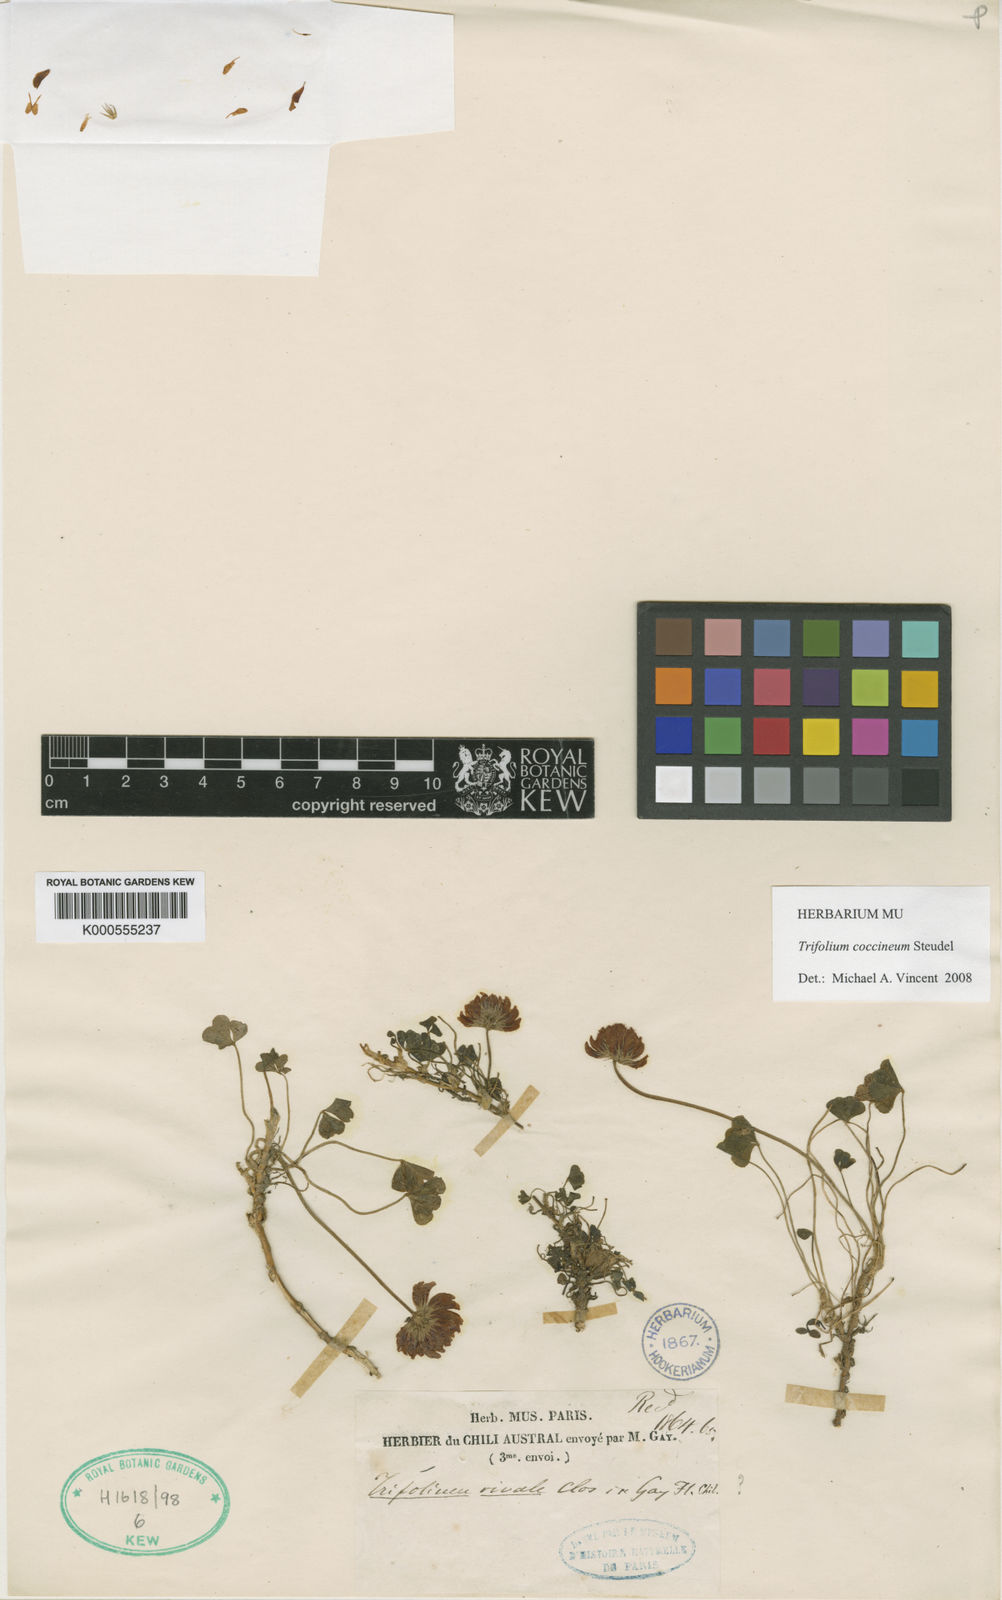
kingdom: Plantae
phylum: Tracheophyta
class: Magnoliopsida
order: Fabales
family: Fabaceae
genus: Trifolium
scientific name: Trifolium
